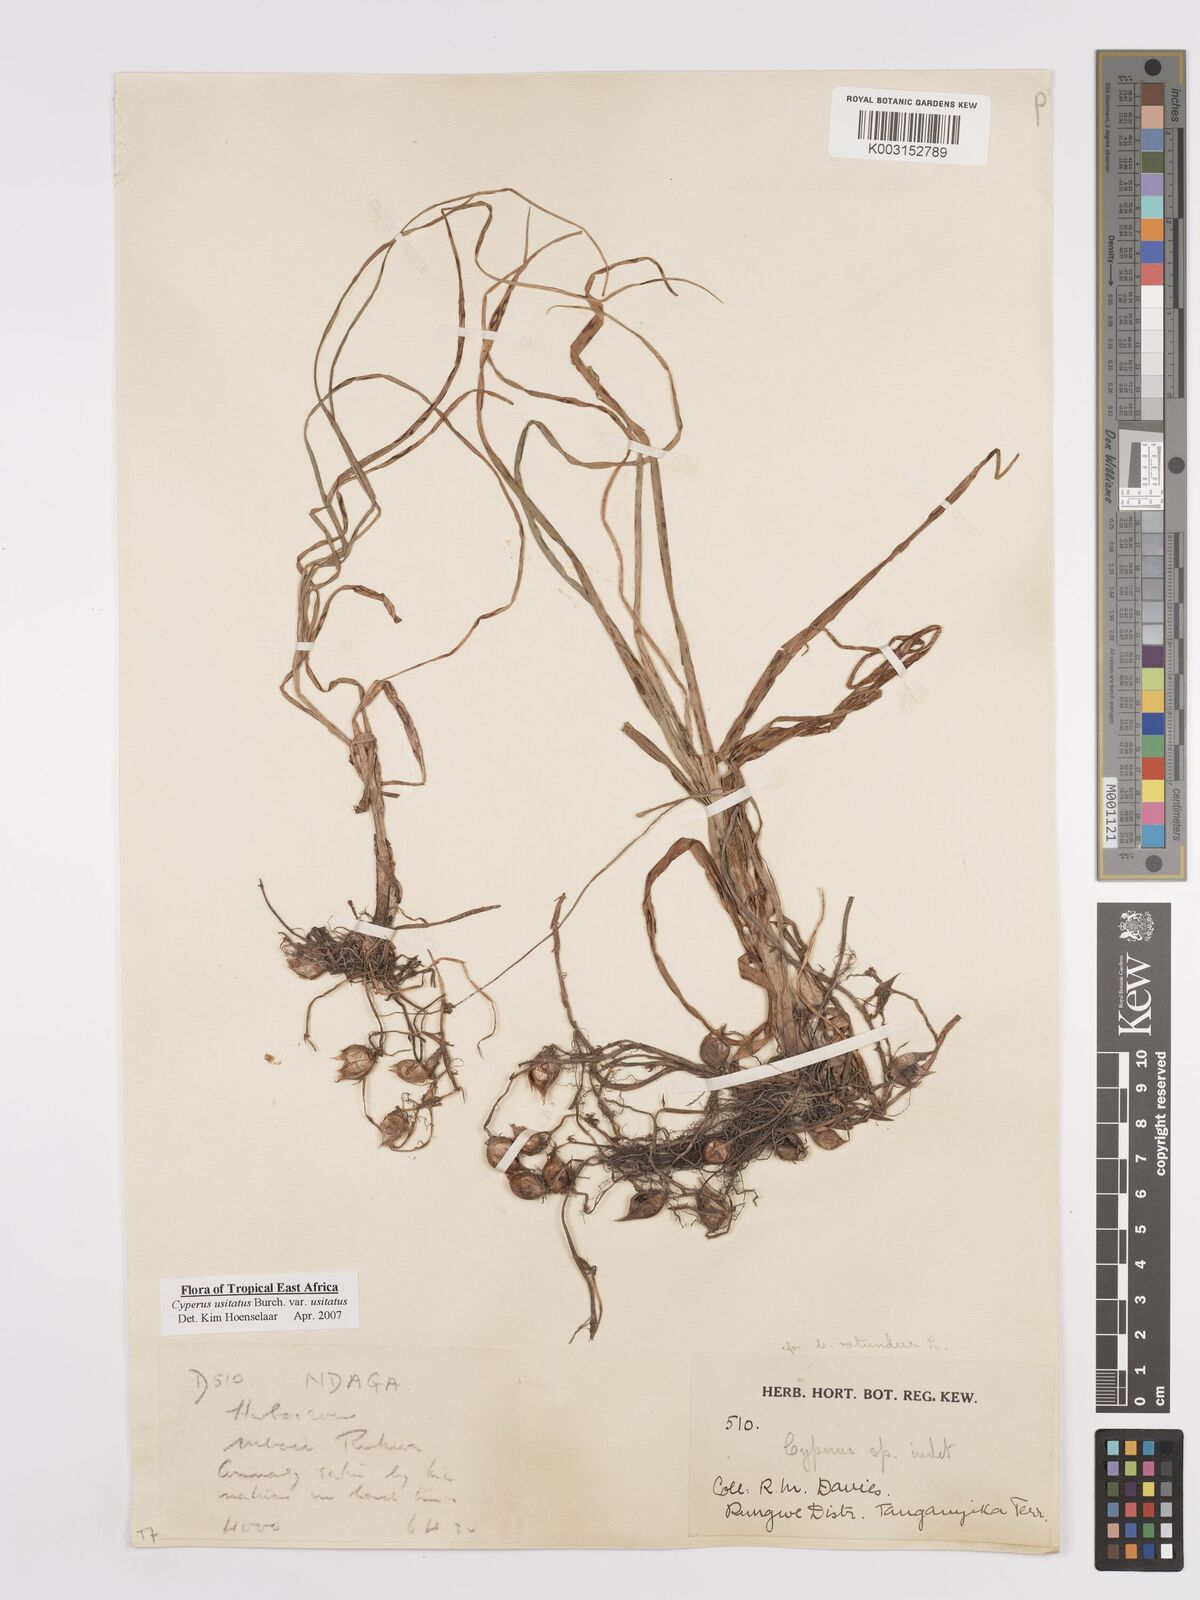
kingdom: Plantae
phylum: Tracheophyta
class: Liliopsida
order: Poales
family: Cyperaceae
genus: Cyperus
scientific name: Cyperus usitatus
